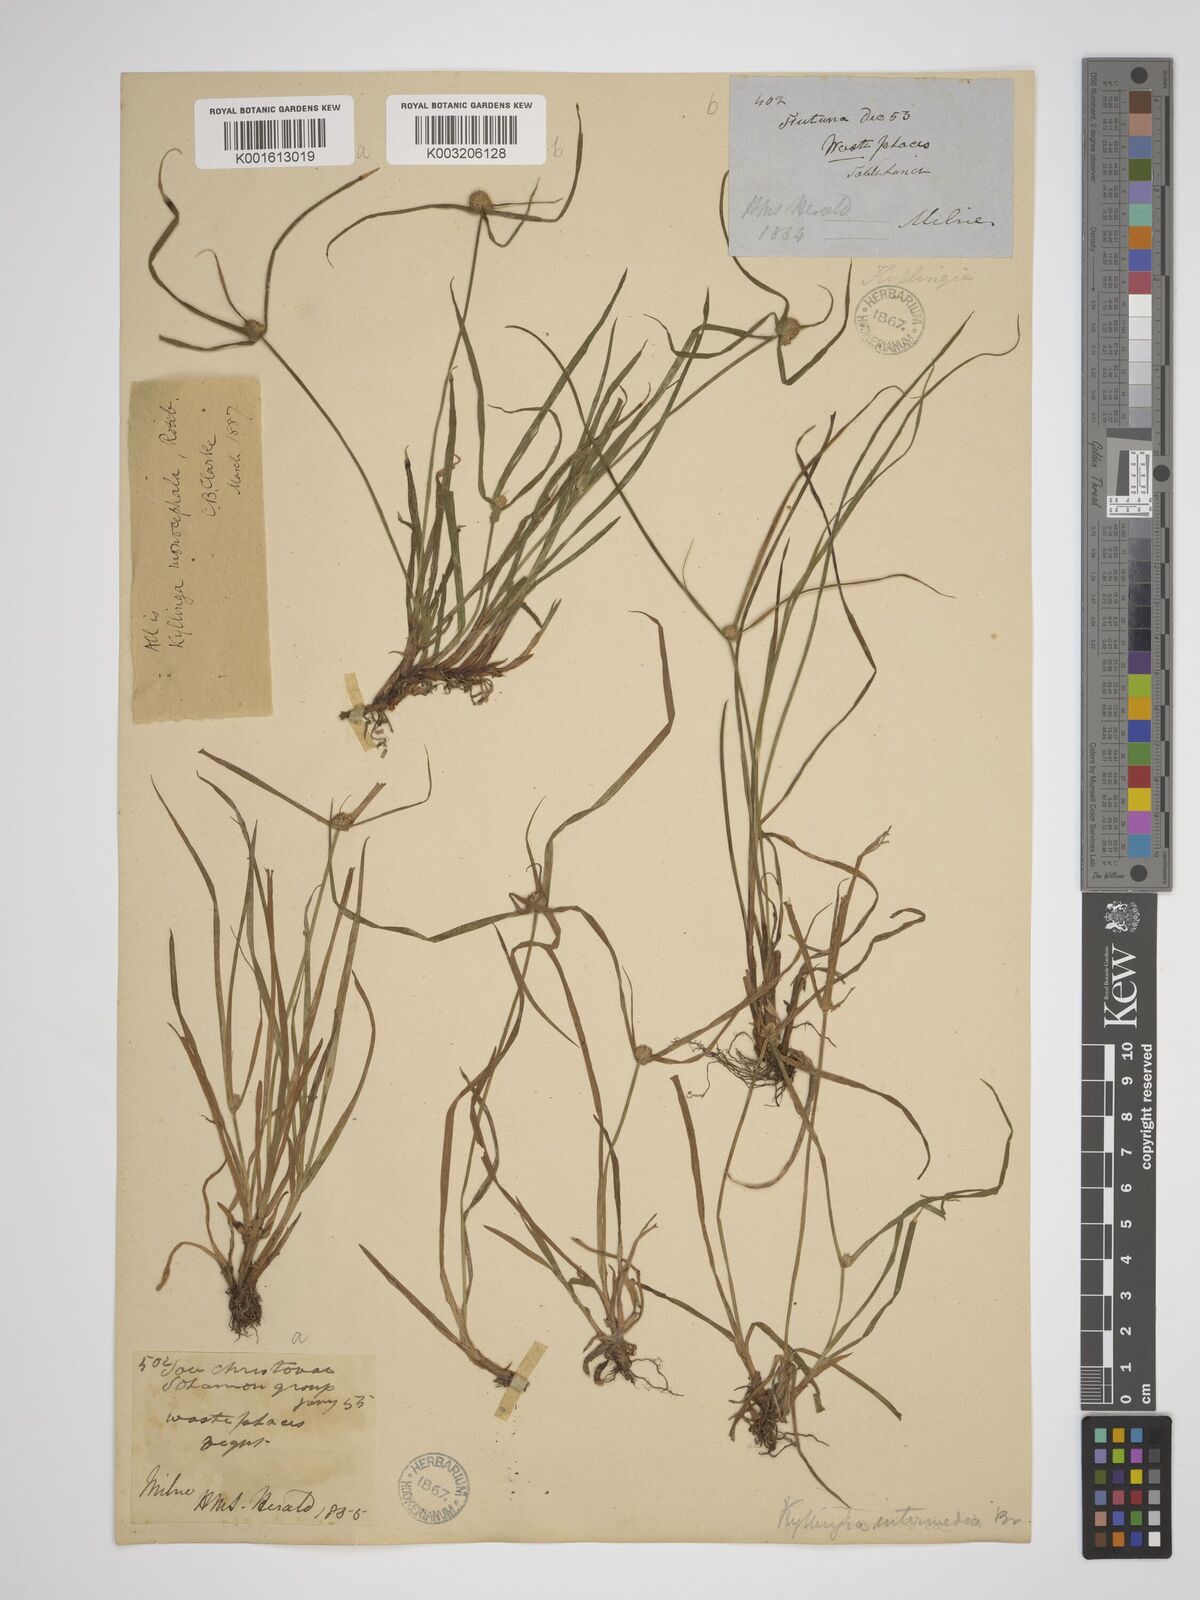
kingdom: Plantae
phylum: Tracheophyta
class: Liliopsida
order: Poales
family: Cyperaceae
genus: Rhynchospora
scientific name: Rhynchospora colorata
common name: Star sedge
